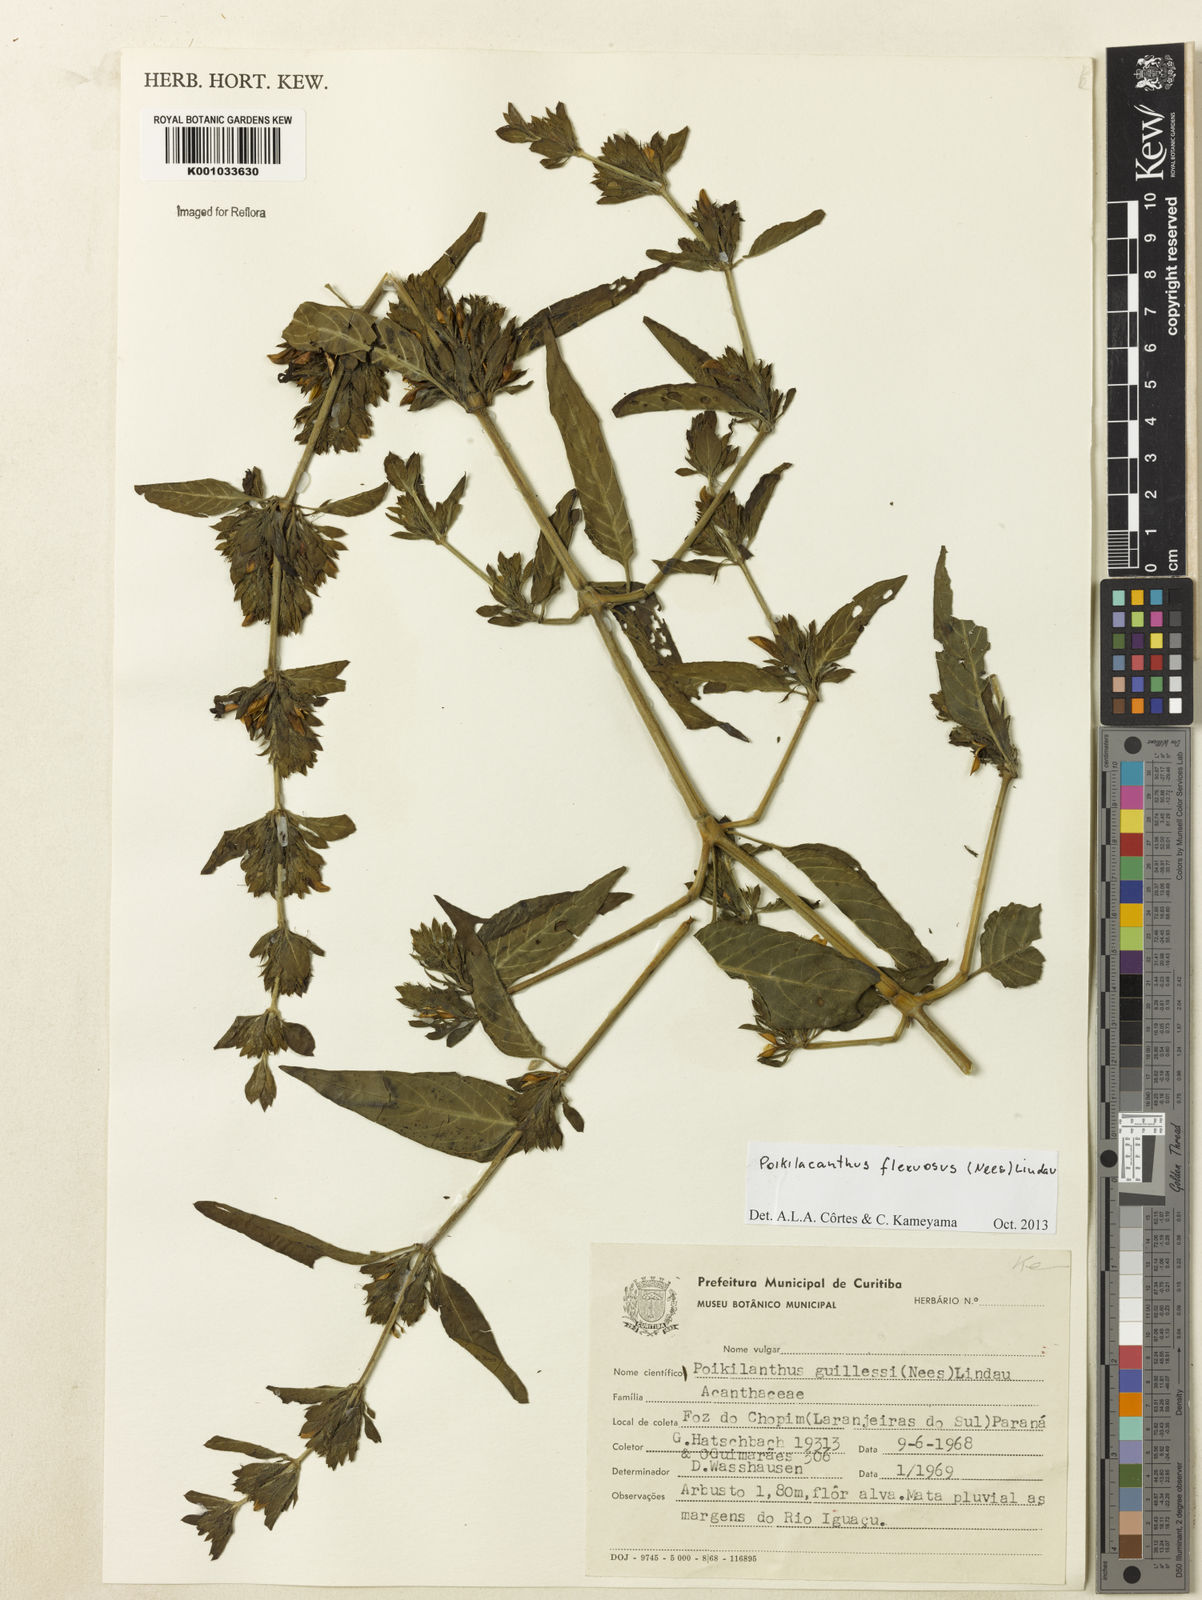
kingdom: Plantae
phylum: Tracheophyta
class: Magnoliopsida
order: Lamiales
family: Acanthaceae
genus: Poikilacanthus
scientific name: Poikilacanthus glandulosus
